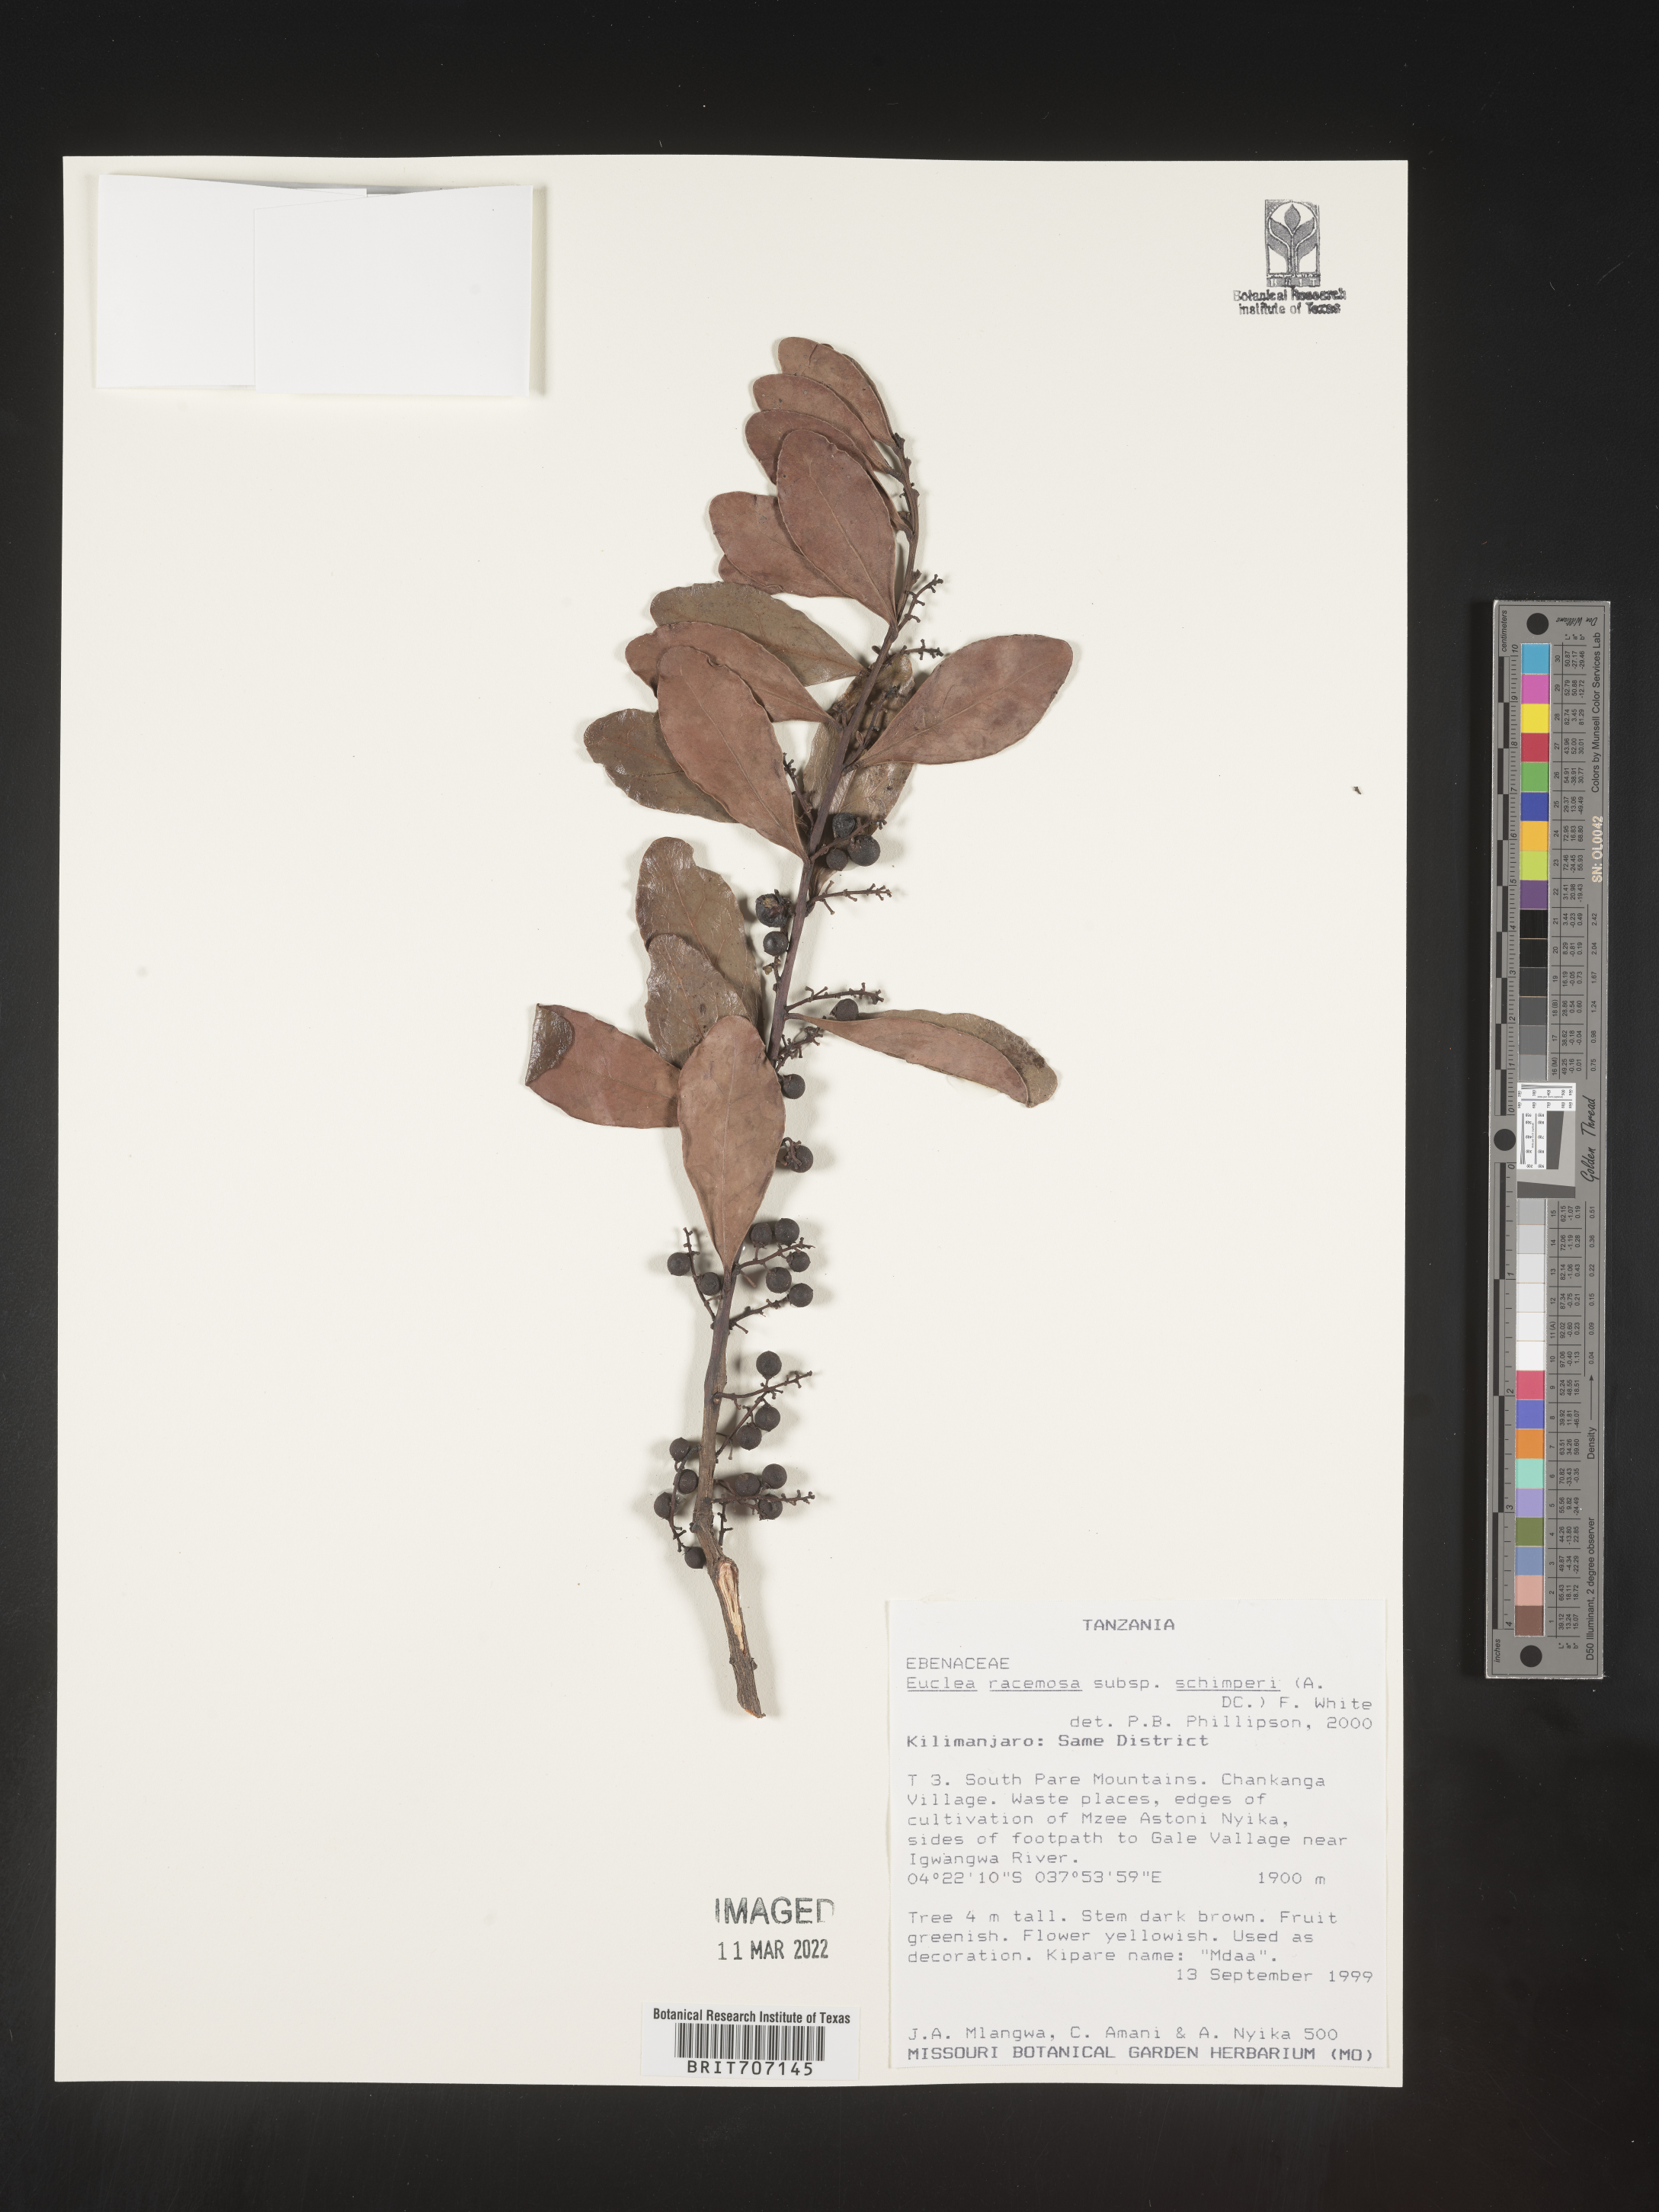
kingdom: Plantae
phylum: Tracheophyta
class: Magnoliopsida
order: Ericales
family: Ebenaceae
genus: Euclea
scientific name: Euclea
